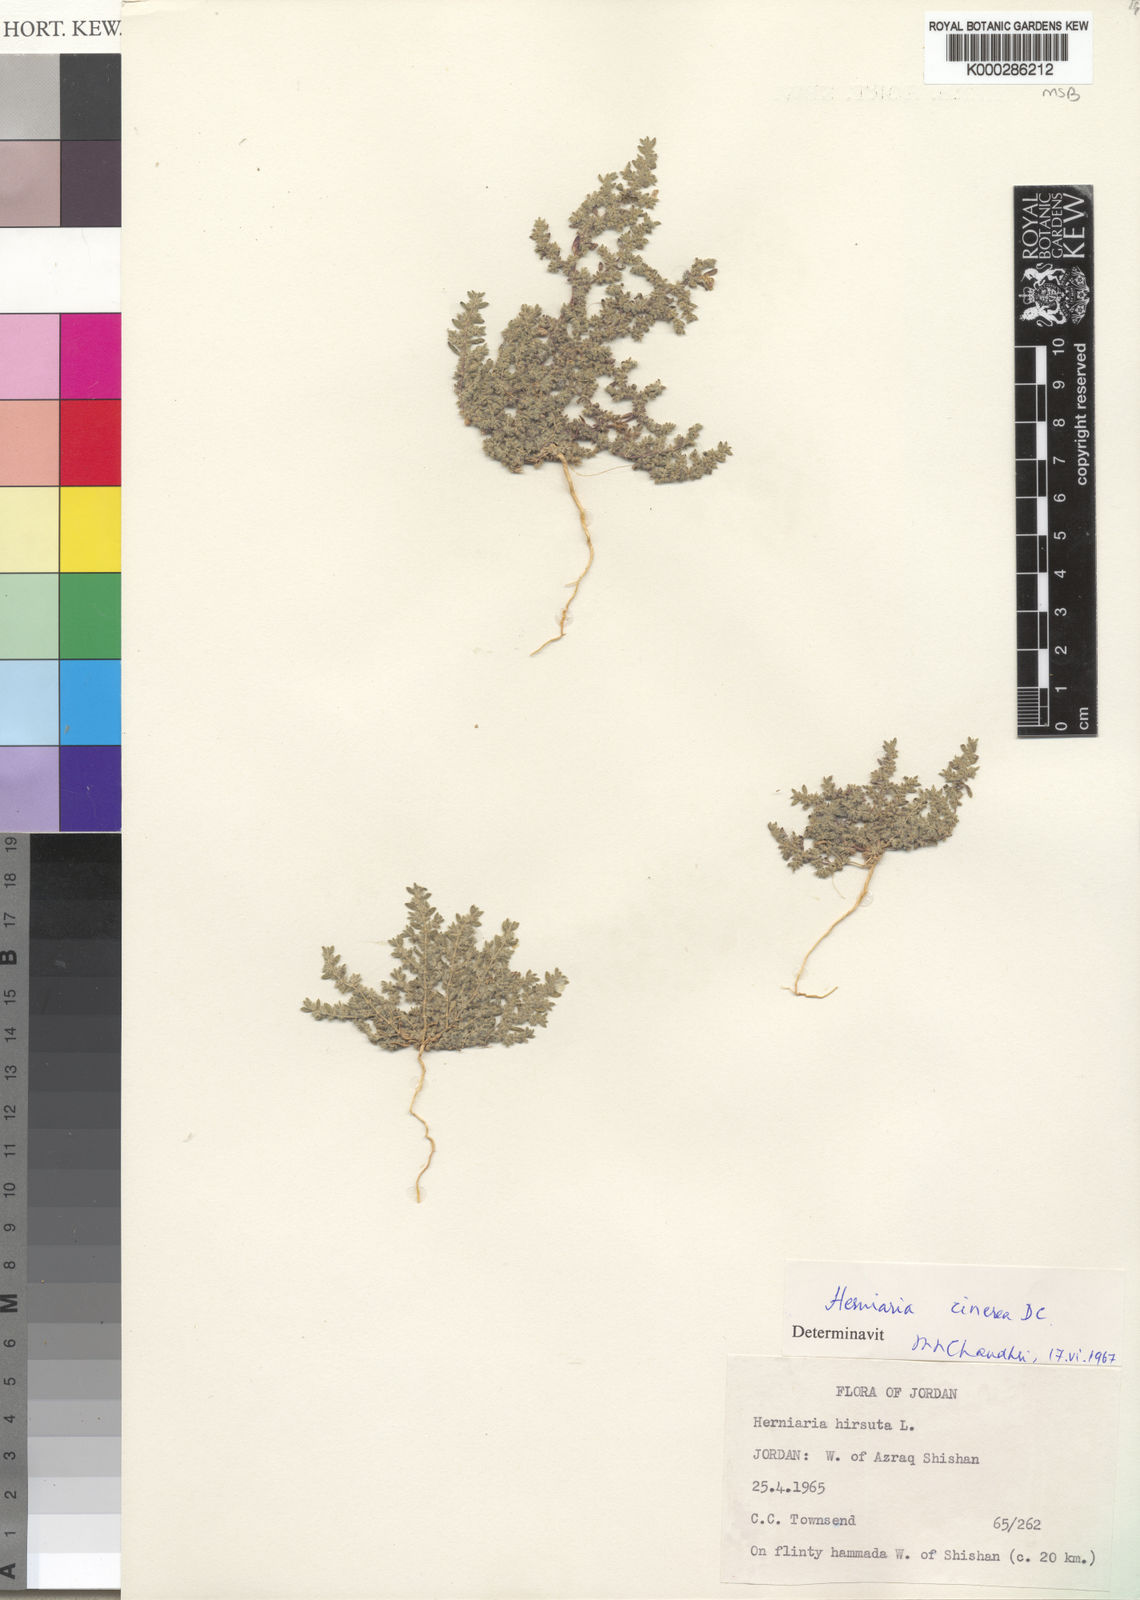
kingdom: Plantae
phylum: Tracheophyta
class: Magnoliopsida
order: Caryophyllales
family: Caryophyllaceae
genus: Herniaria
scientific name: Herniaria hirsuta
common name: Hairy rupturewort
